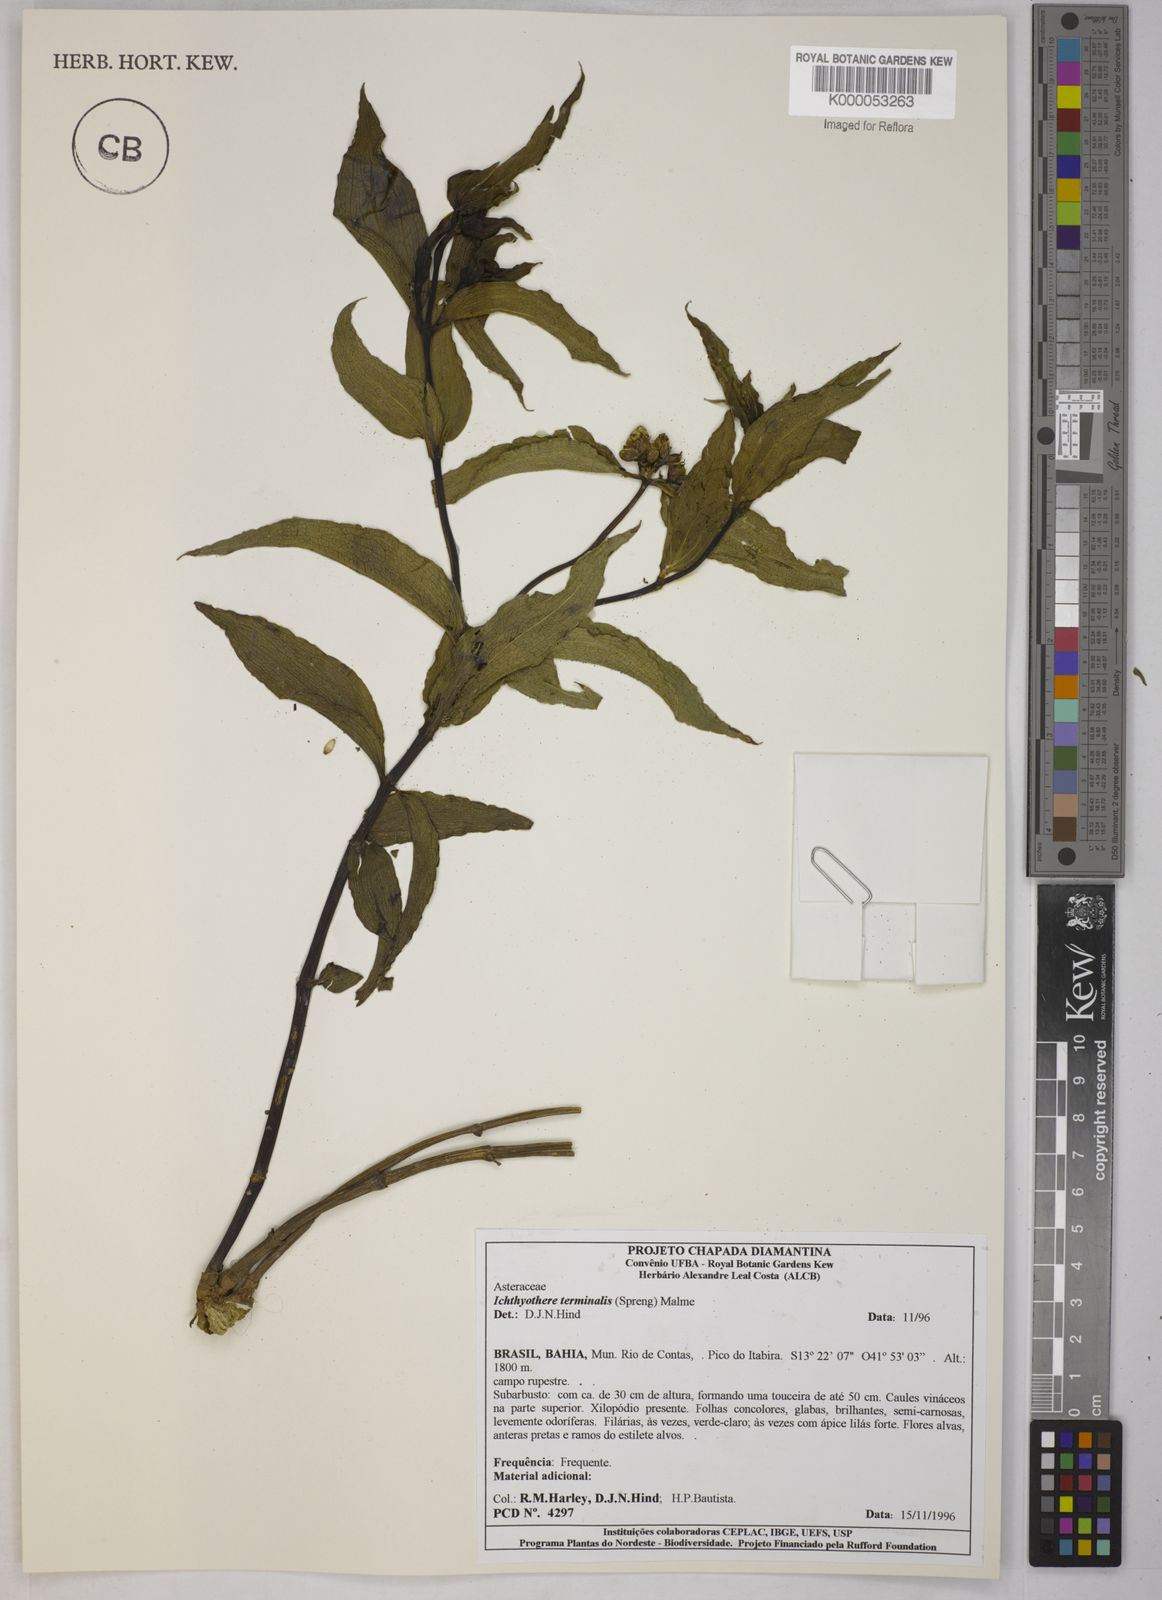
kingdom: Plantae
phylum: Tracheophyta
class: Magnoliopsida
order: Asterales
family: Asteraceae
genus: Ichthyothere
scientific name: Ichthyothere terminalis
